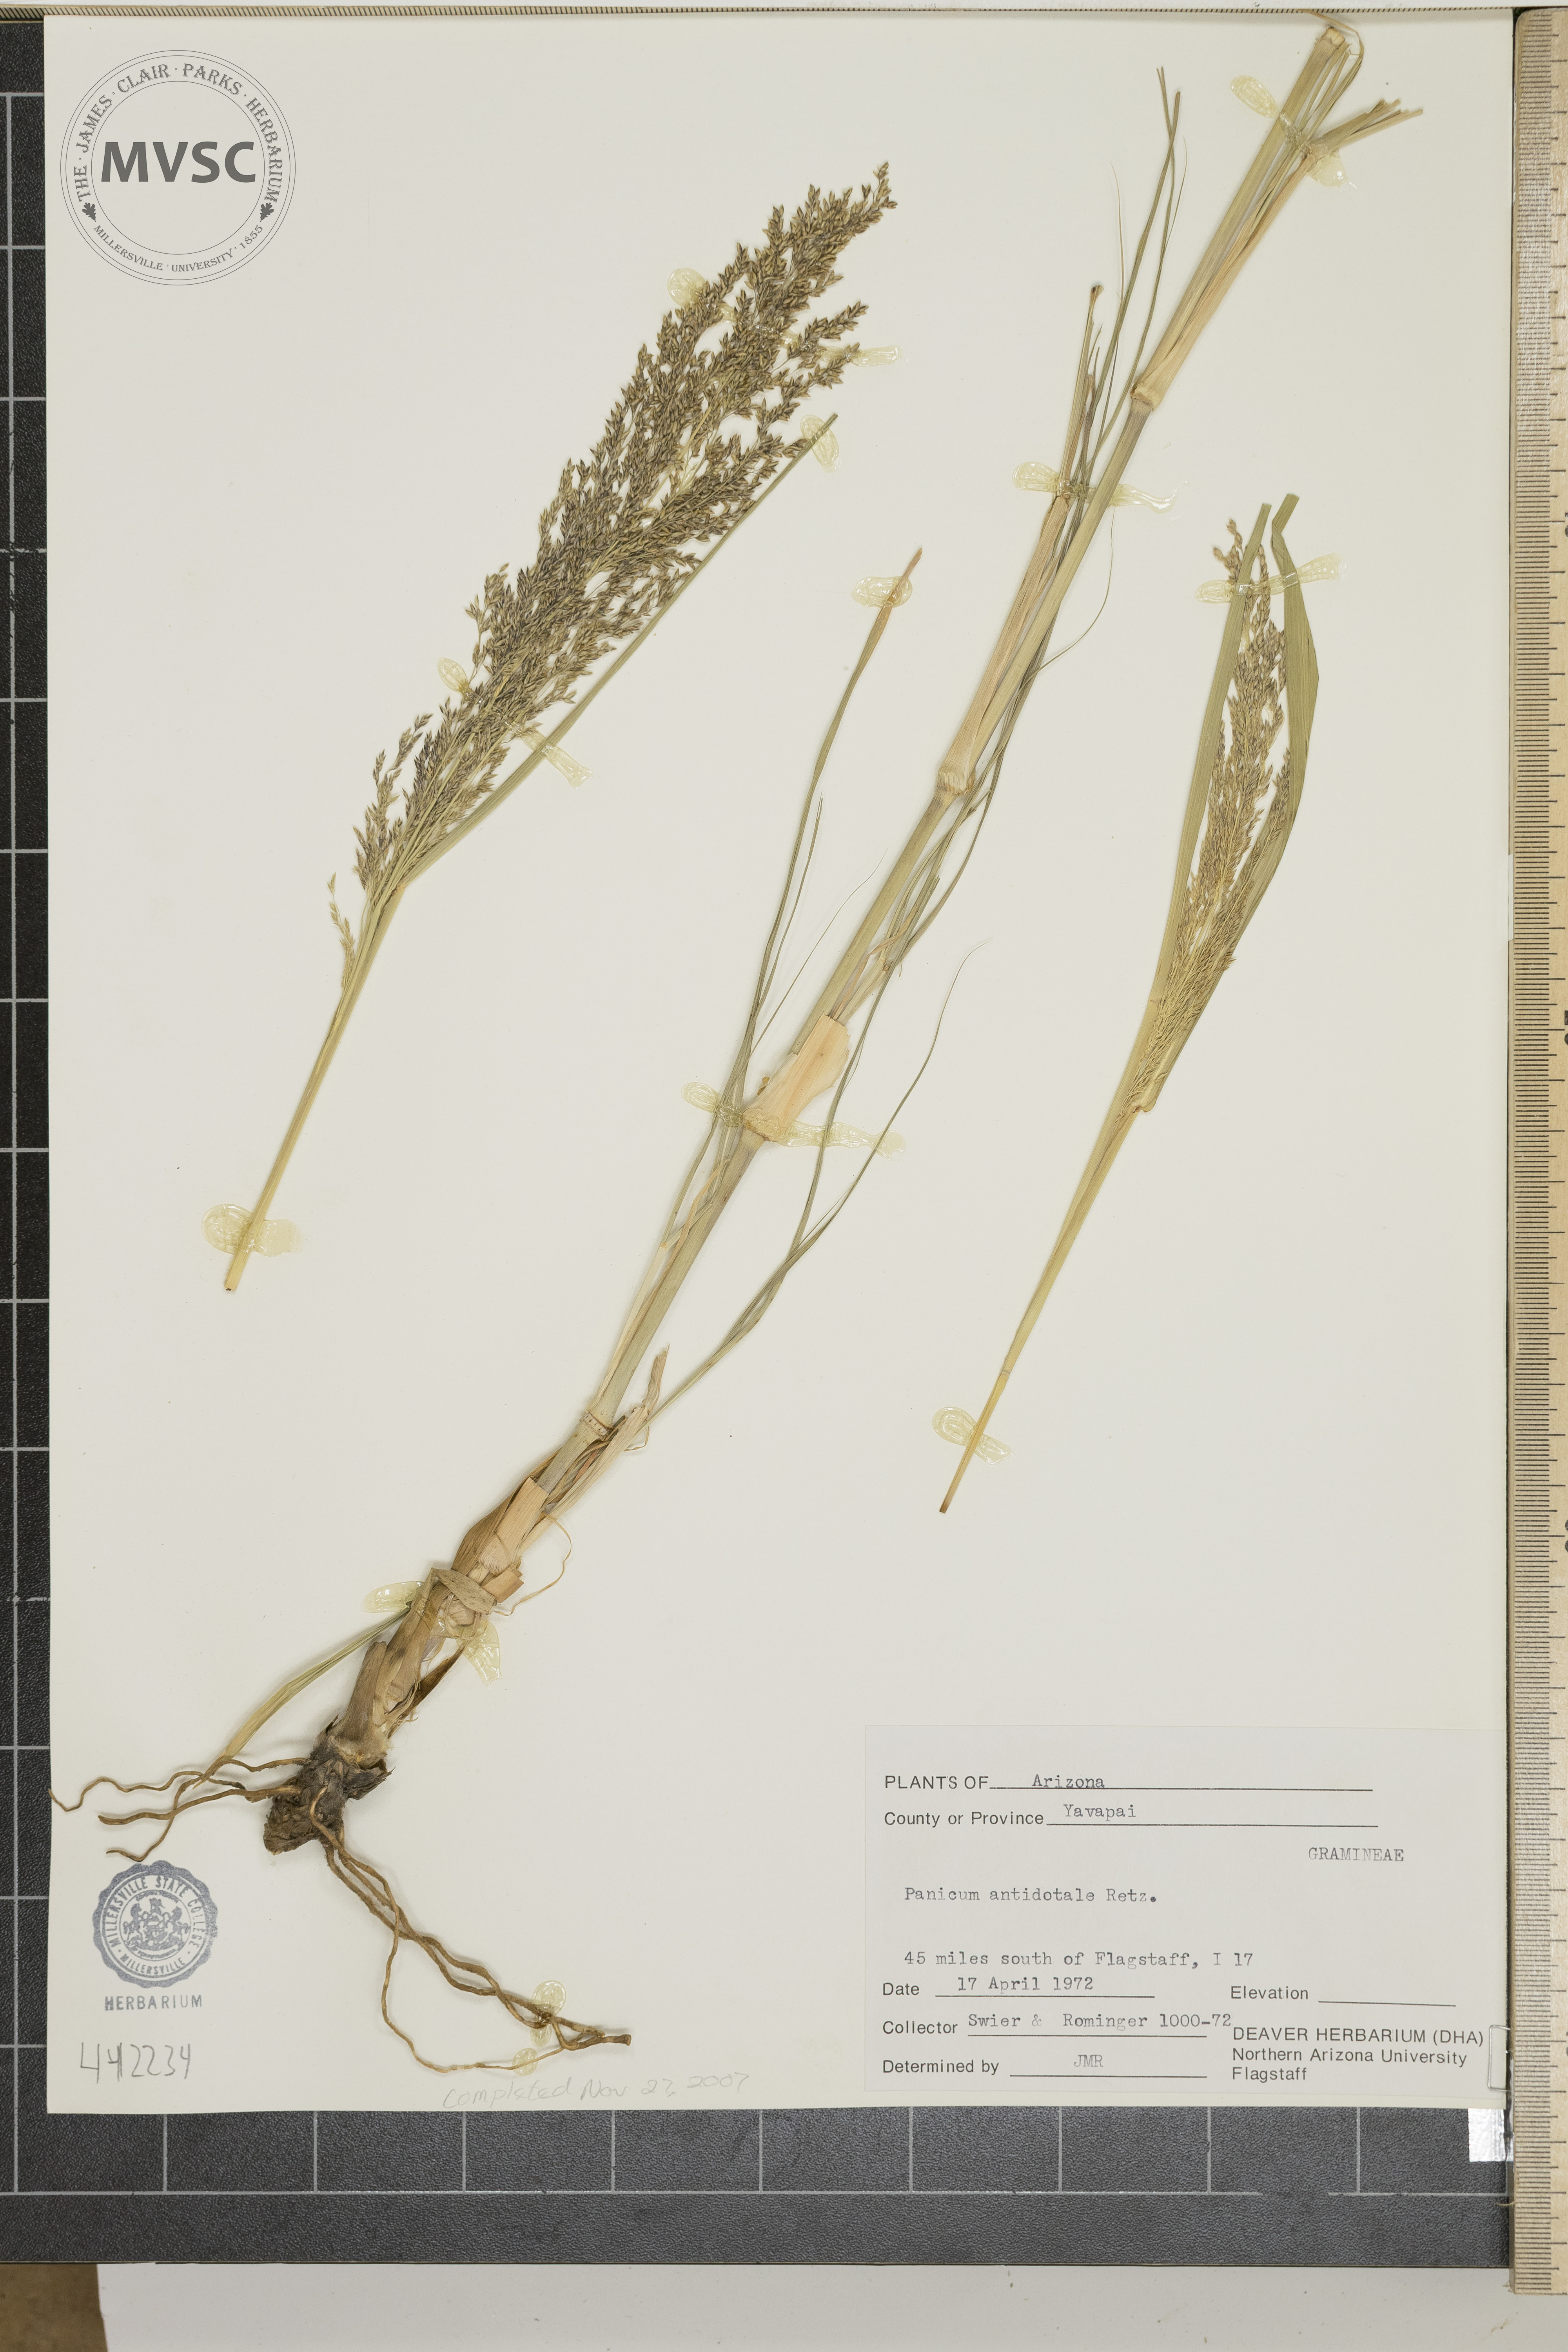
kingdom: Plantae
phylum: Tracheophyta
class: Liliopsida
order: Poales
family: Poaceae
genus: Panicum
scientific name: Panicum antidotale
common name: Blue panicum
